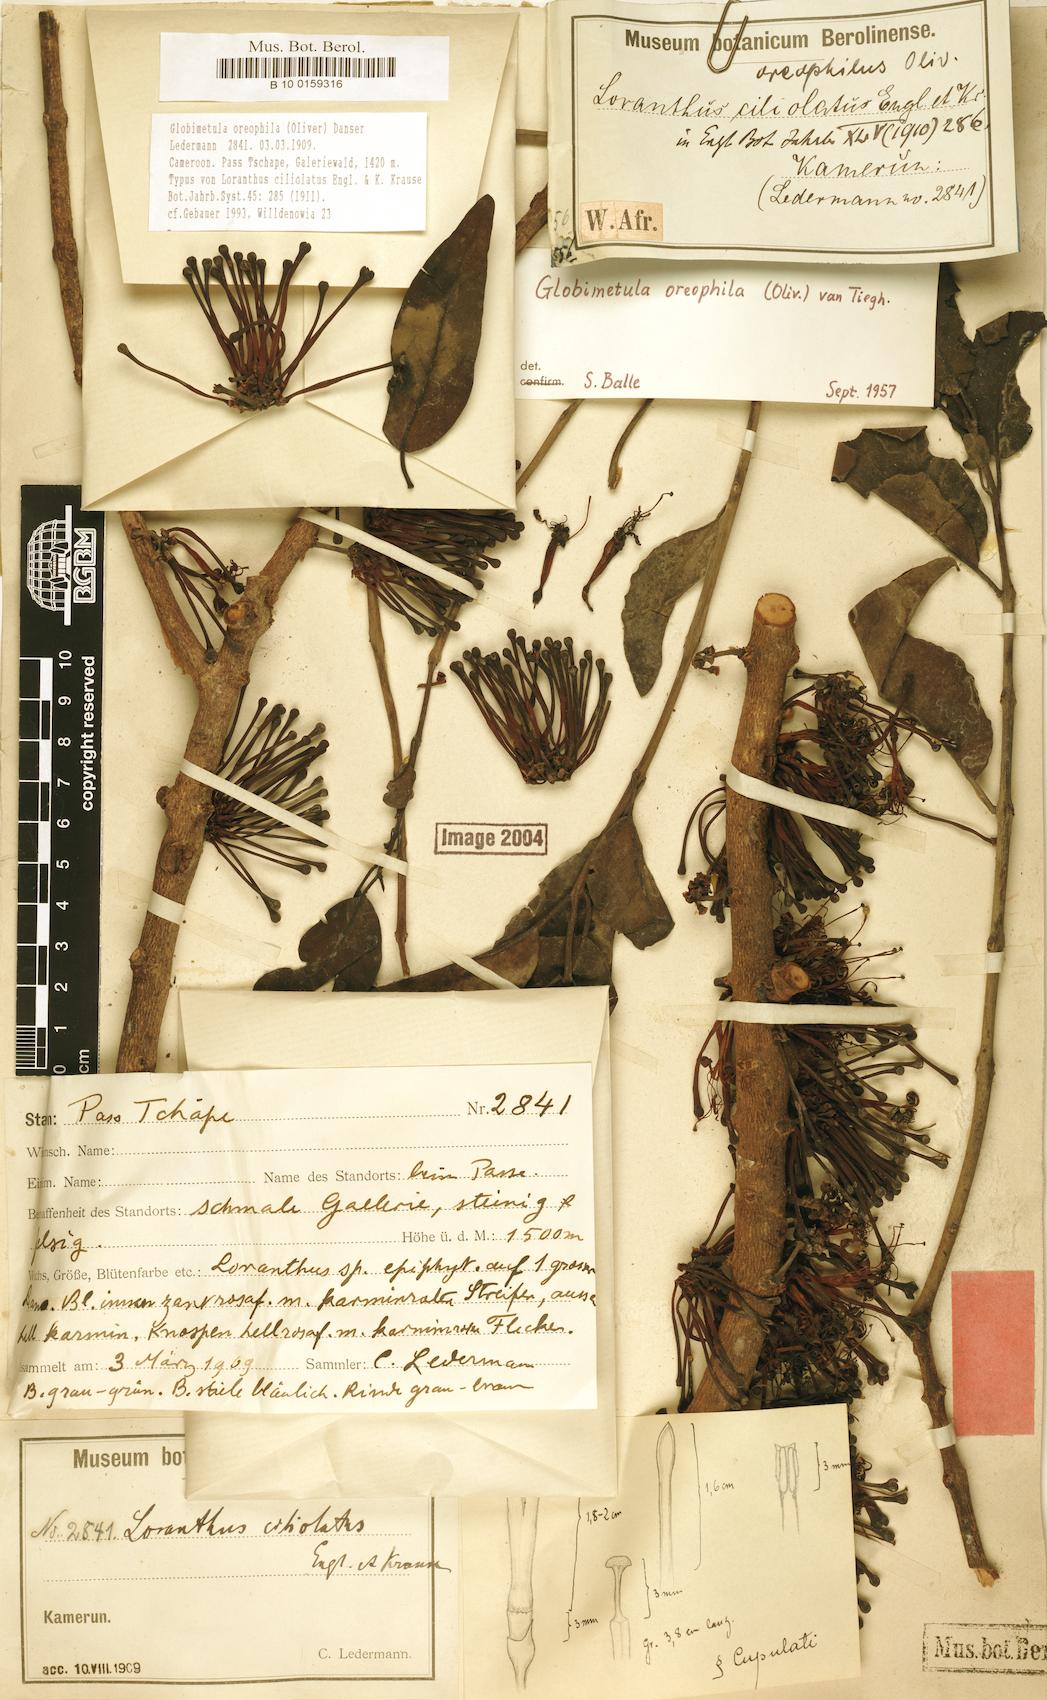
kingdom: Plantae
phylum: Tracheophyta
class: Magnoliopsida
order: Santalales
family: Loranthaceae
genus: Globimetula
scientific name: Globimetula oreophila
